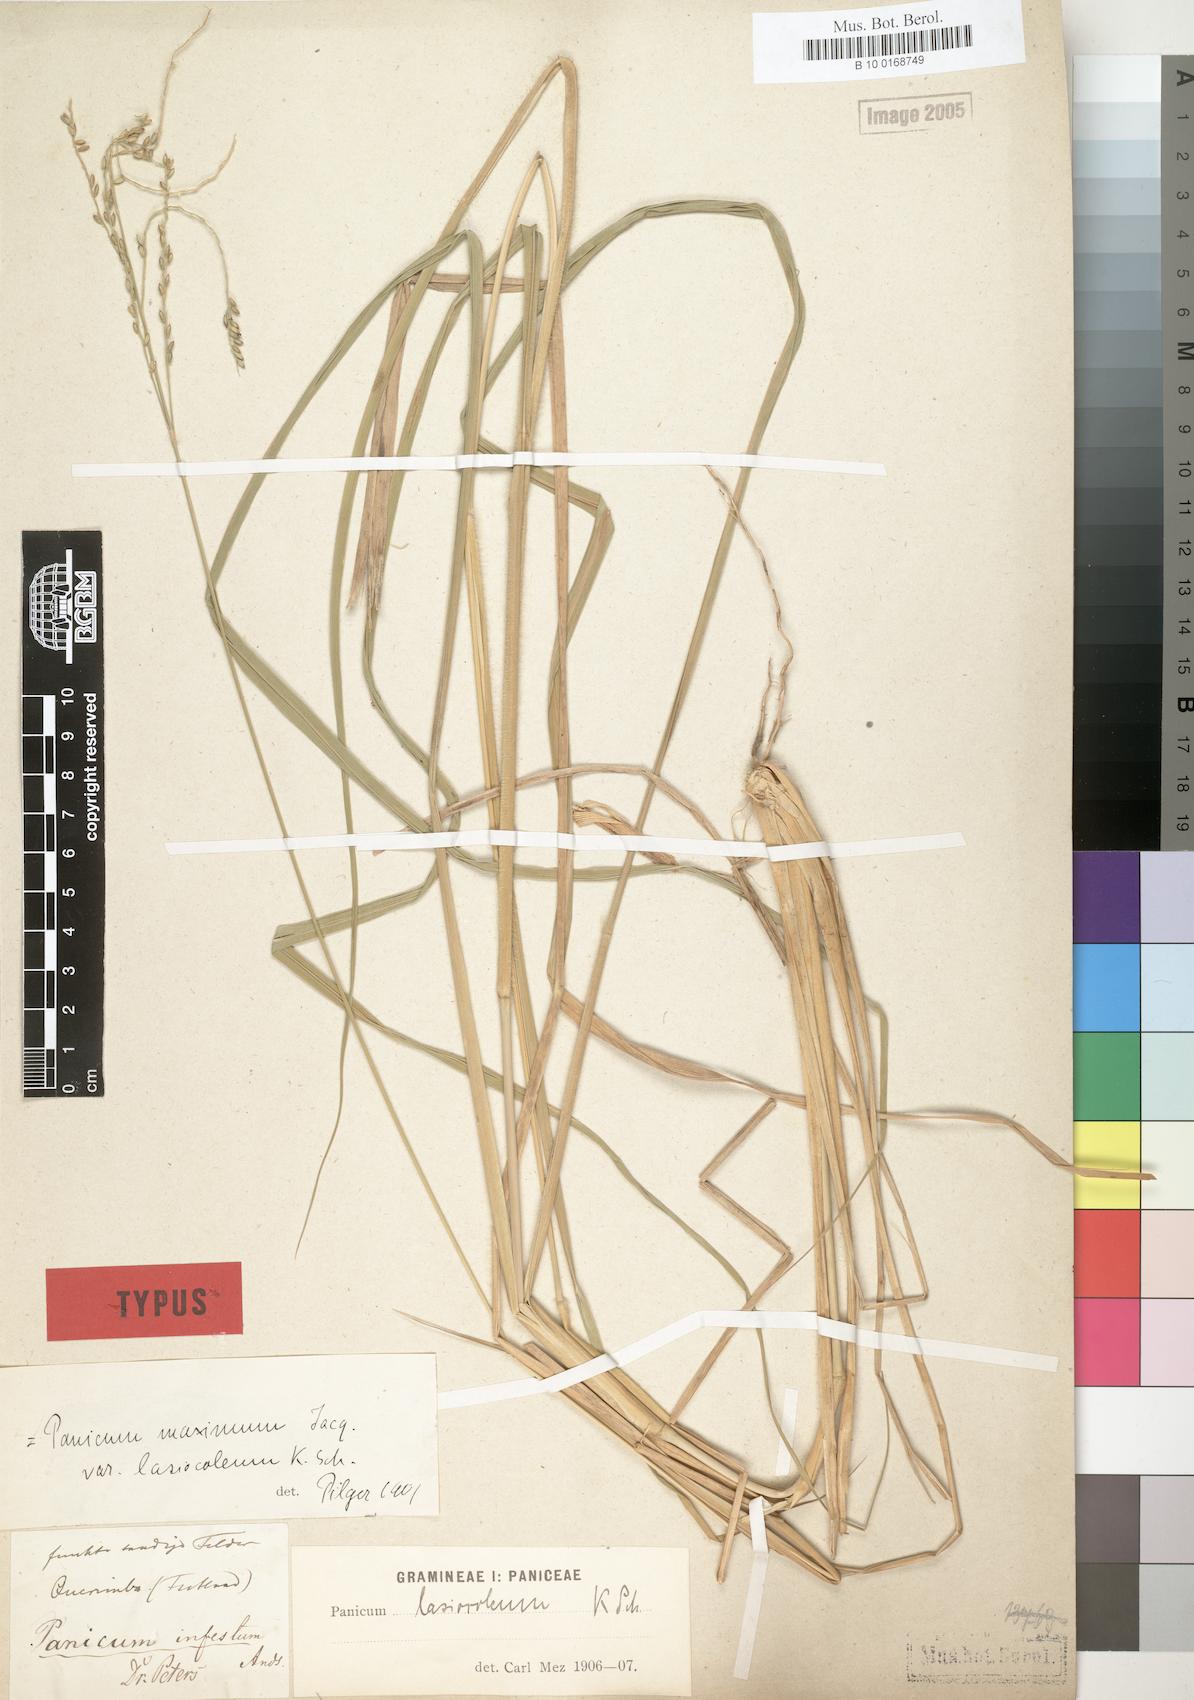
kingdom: Plantae
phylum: Tracheophyta
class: Liliopsida
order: Poales
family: Poaceae
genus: Megathyrsus
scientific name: Megathyrsus infestus
